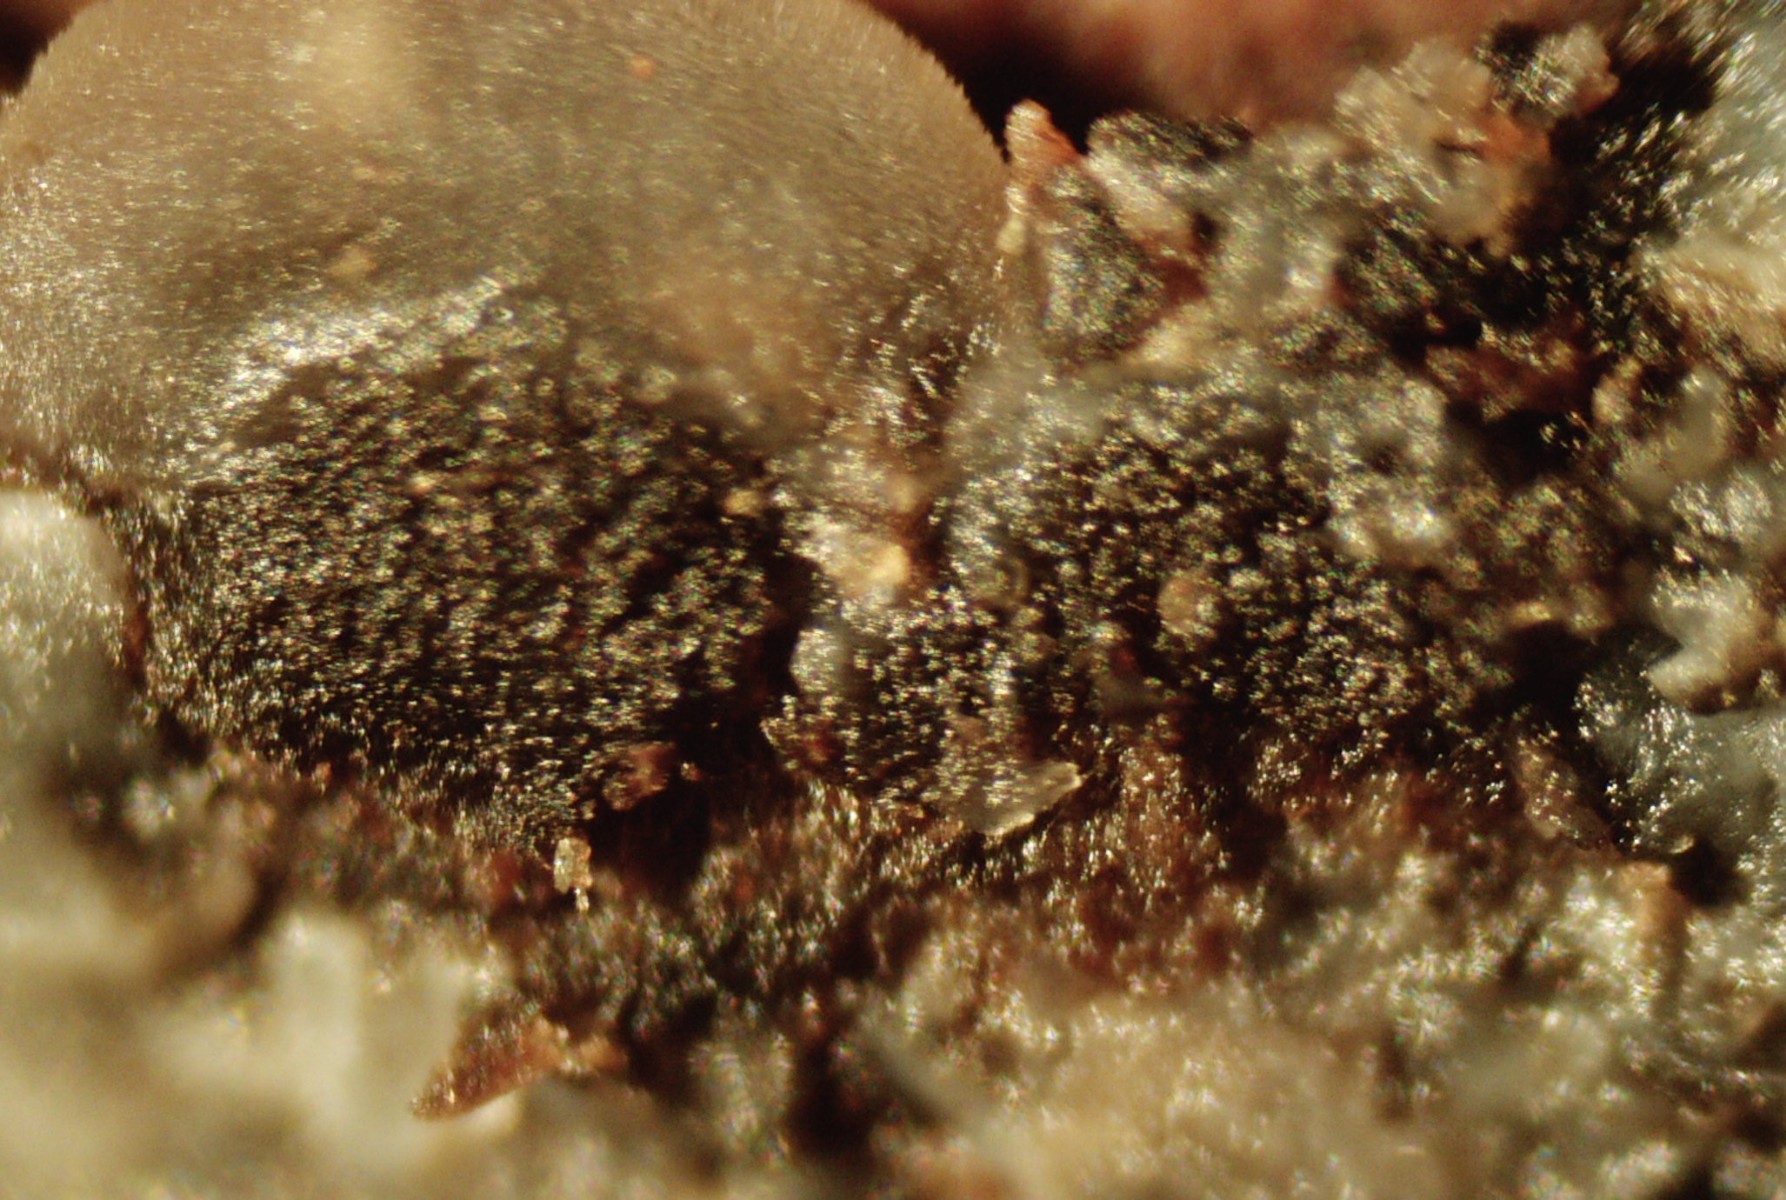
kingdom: Fungi
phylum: Ascomycota
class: Leotiomycetes
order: Helotiales
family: Mollisiaceae
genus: Mollisia
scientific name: Mollisia
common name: gråskive
